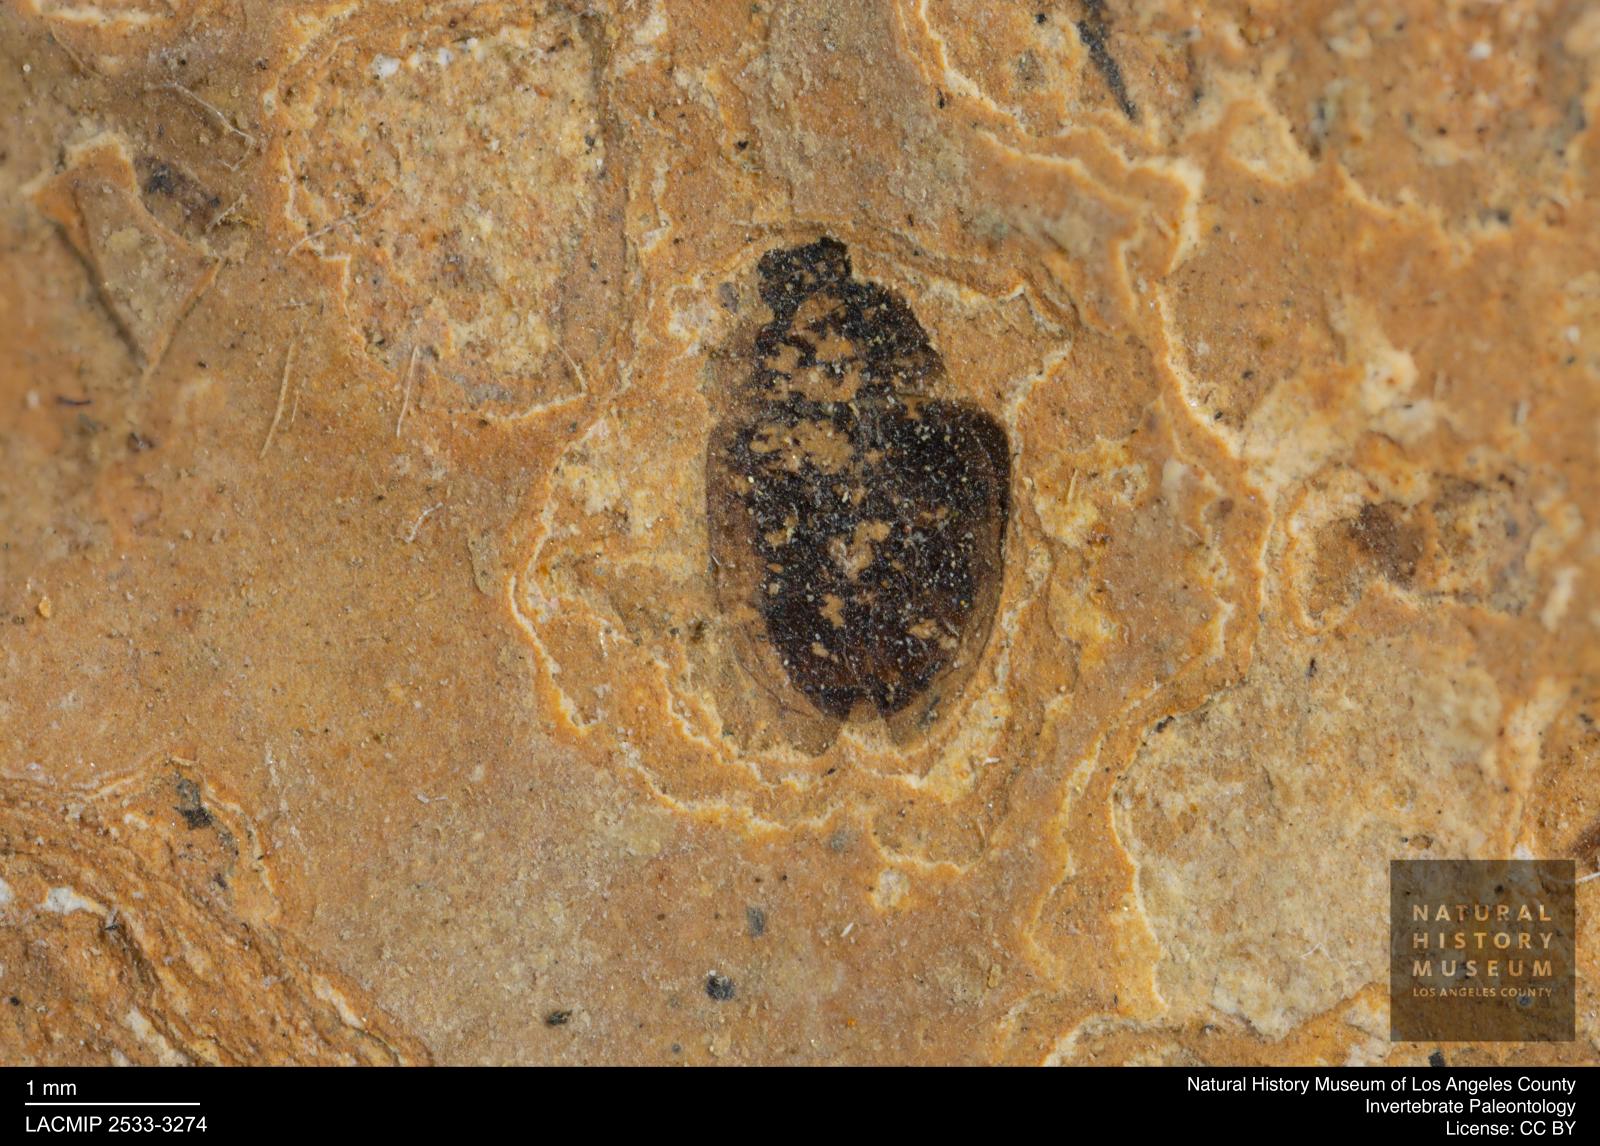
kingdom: Animalia
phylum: Arthropoda
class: Insecta
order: Coleoptera
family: Hydrophilidae
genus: Paracymus
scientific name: Paracymus excitatus
